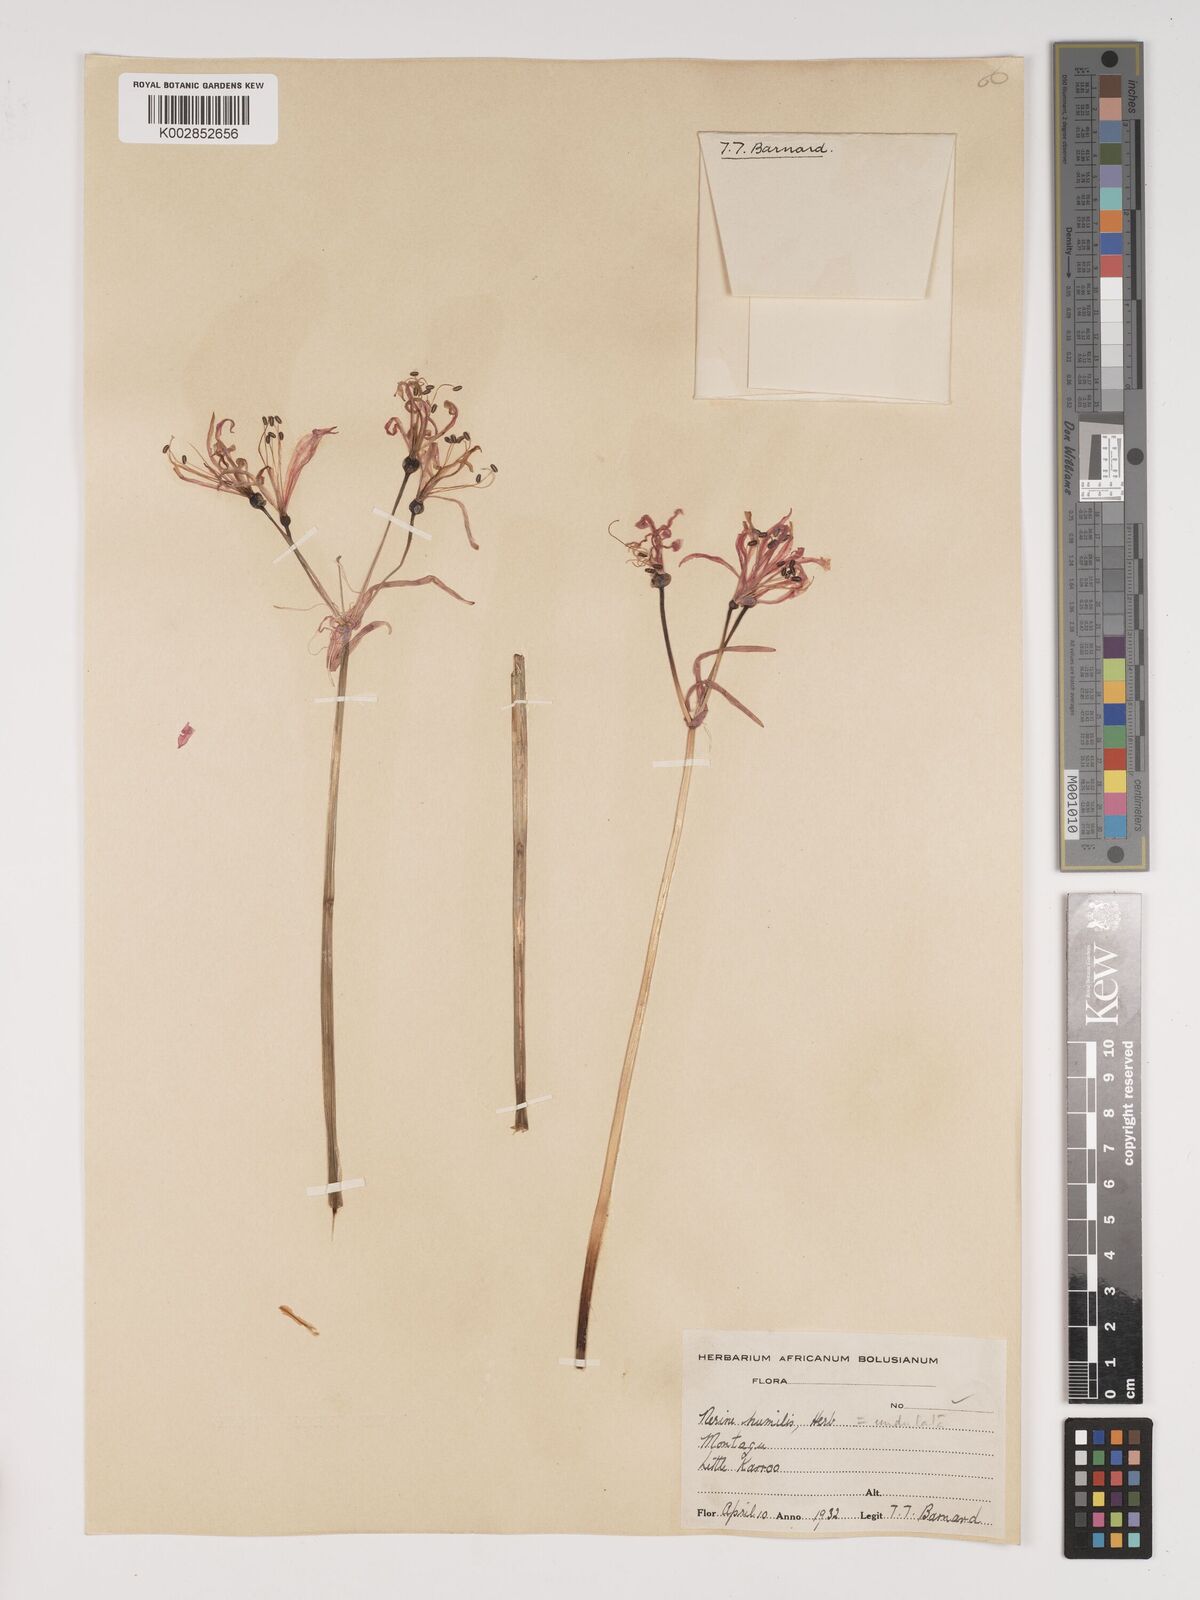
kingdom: Plantae
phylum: Tracheophyta
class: Liliopsida
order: Asparagales
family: Amaryllidaceae
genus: Nerine
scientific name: Nerine humilis
